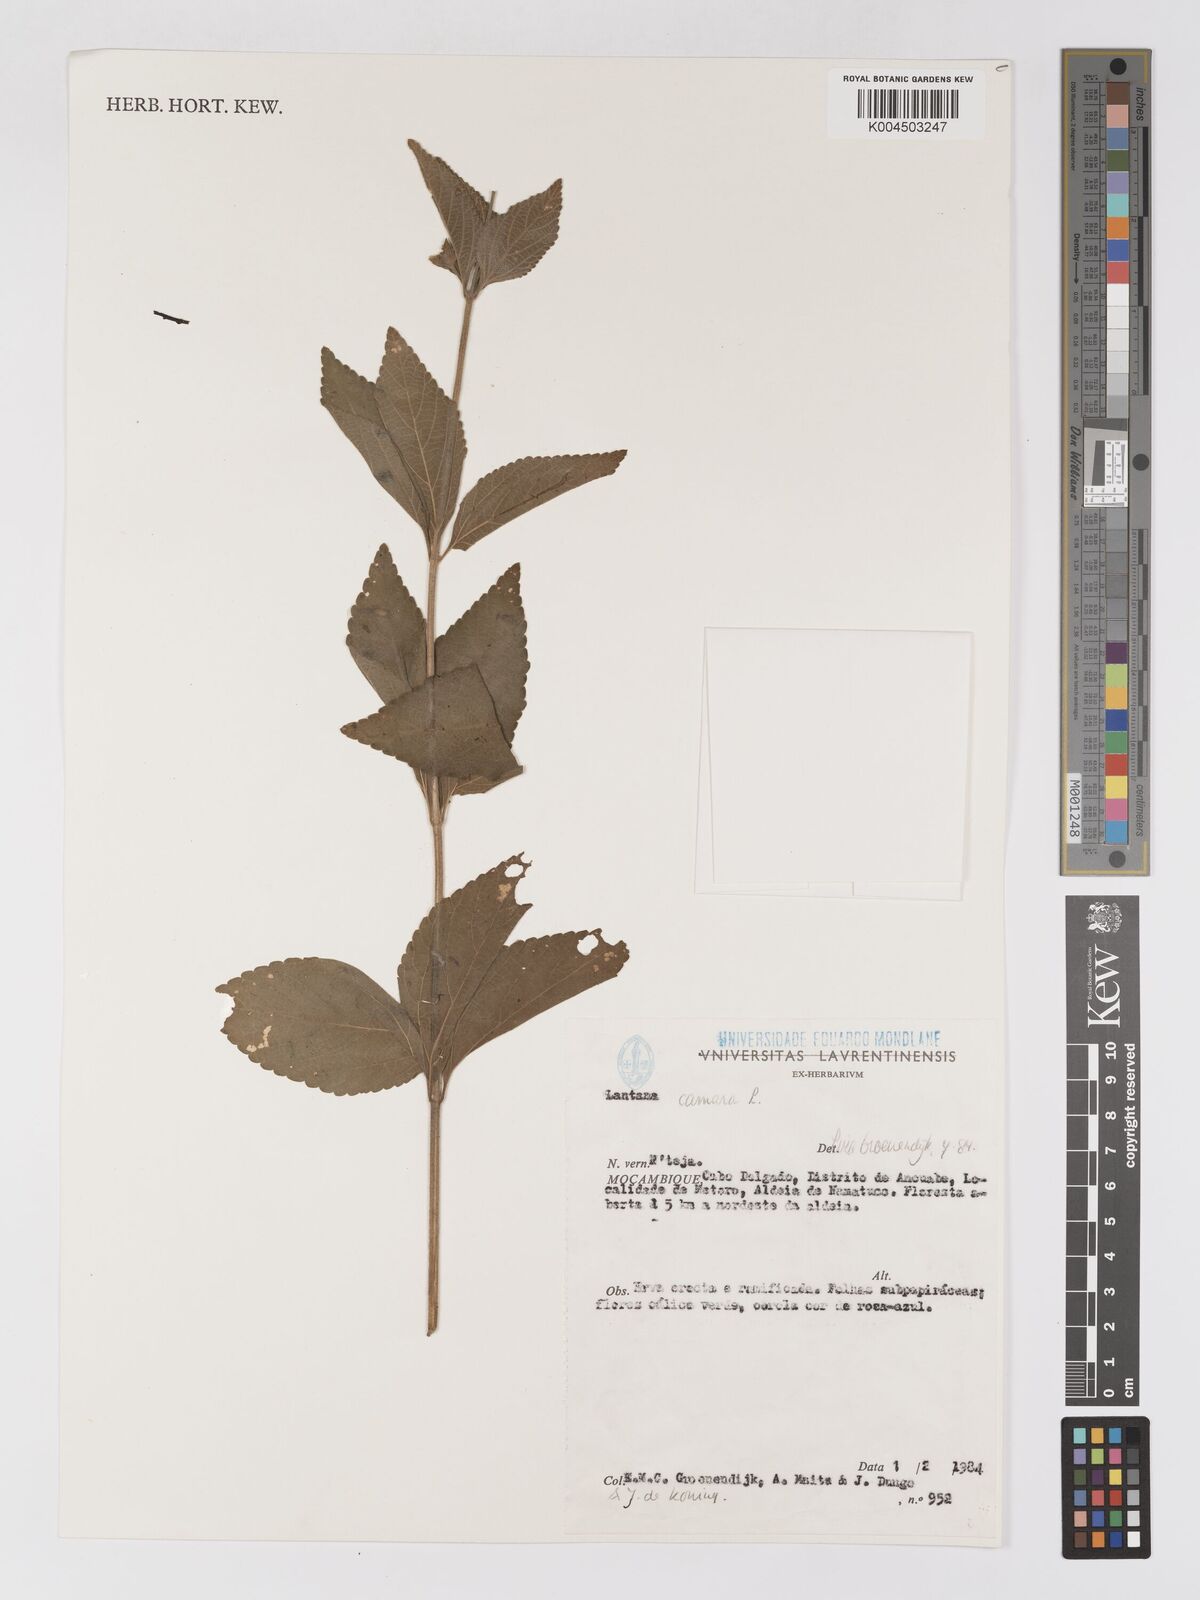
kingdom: Plantae
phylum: Tracheophyta
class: Magnoliopsida
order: Lamiales
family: Verbenaceae
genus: Lantana
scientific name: Lantana camara
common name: Lantana
